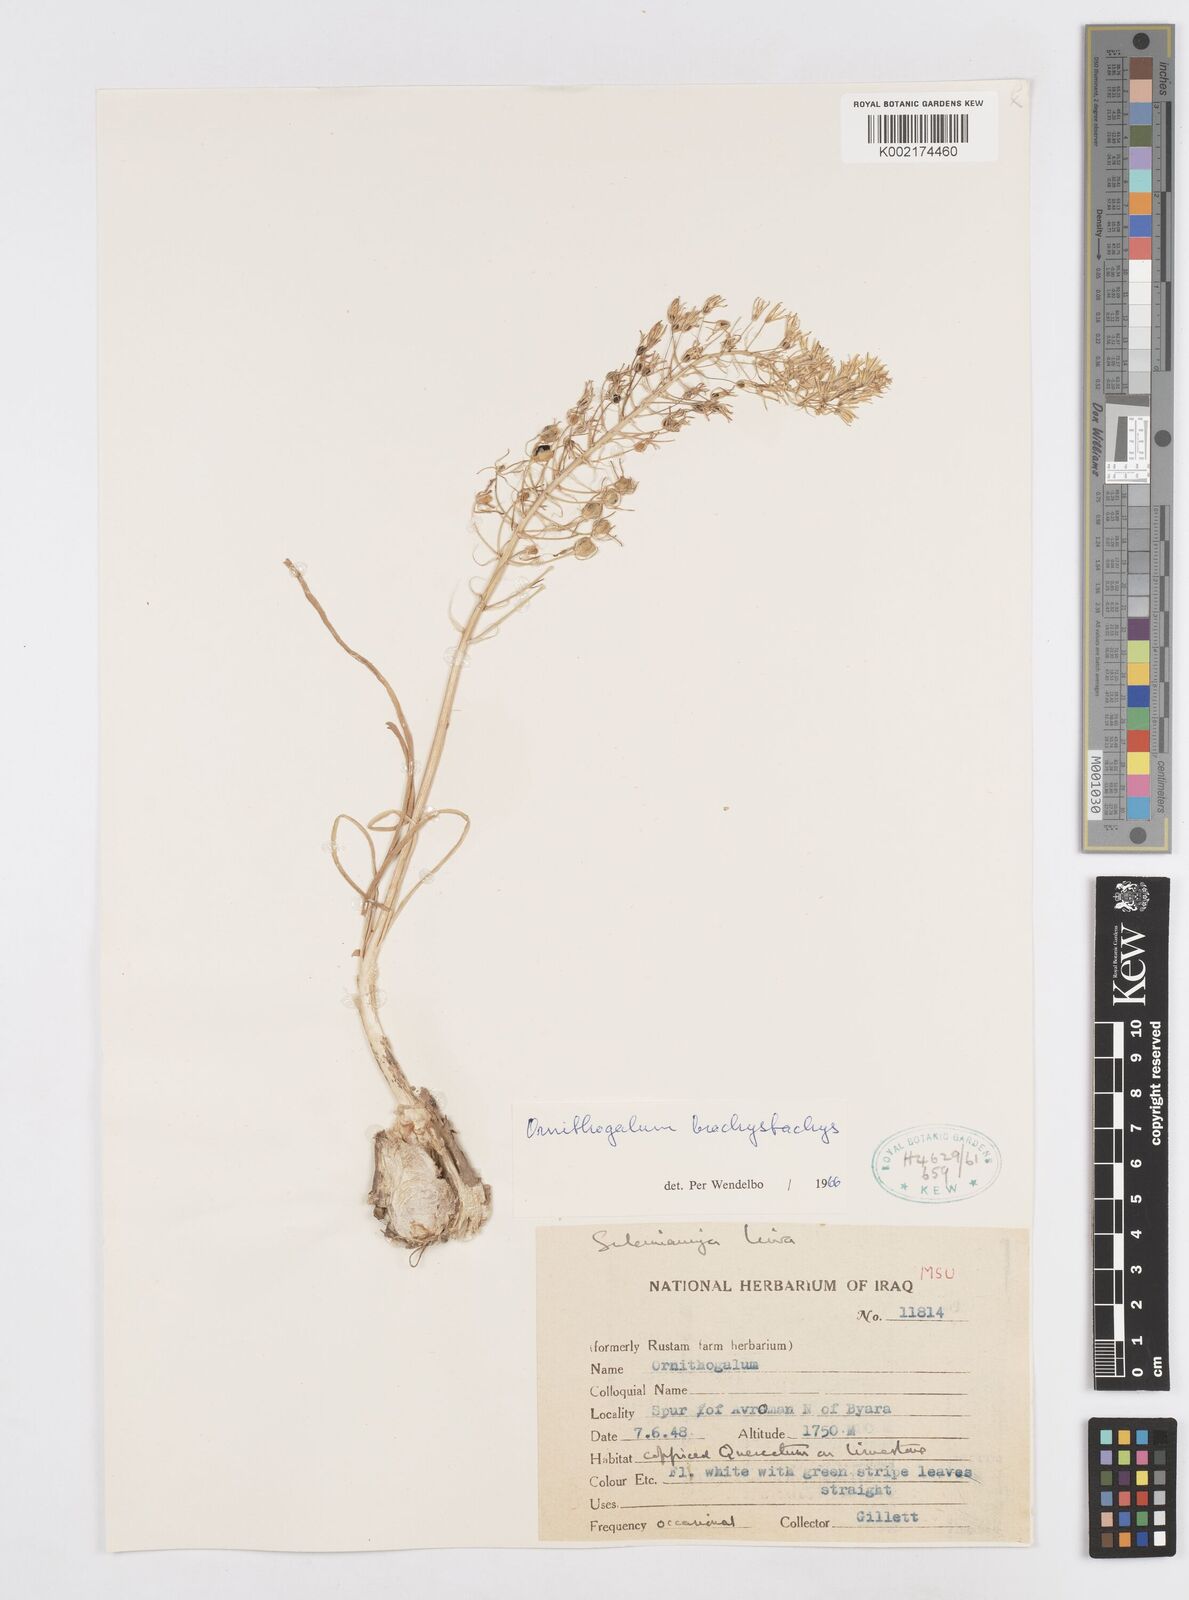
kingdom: Plantae
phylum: Tracheophyta
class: Liliopsida
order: Asparagales
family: Asparagaceae
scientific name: Asparagaceae
